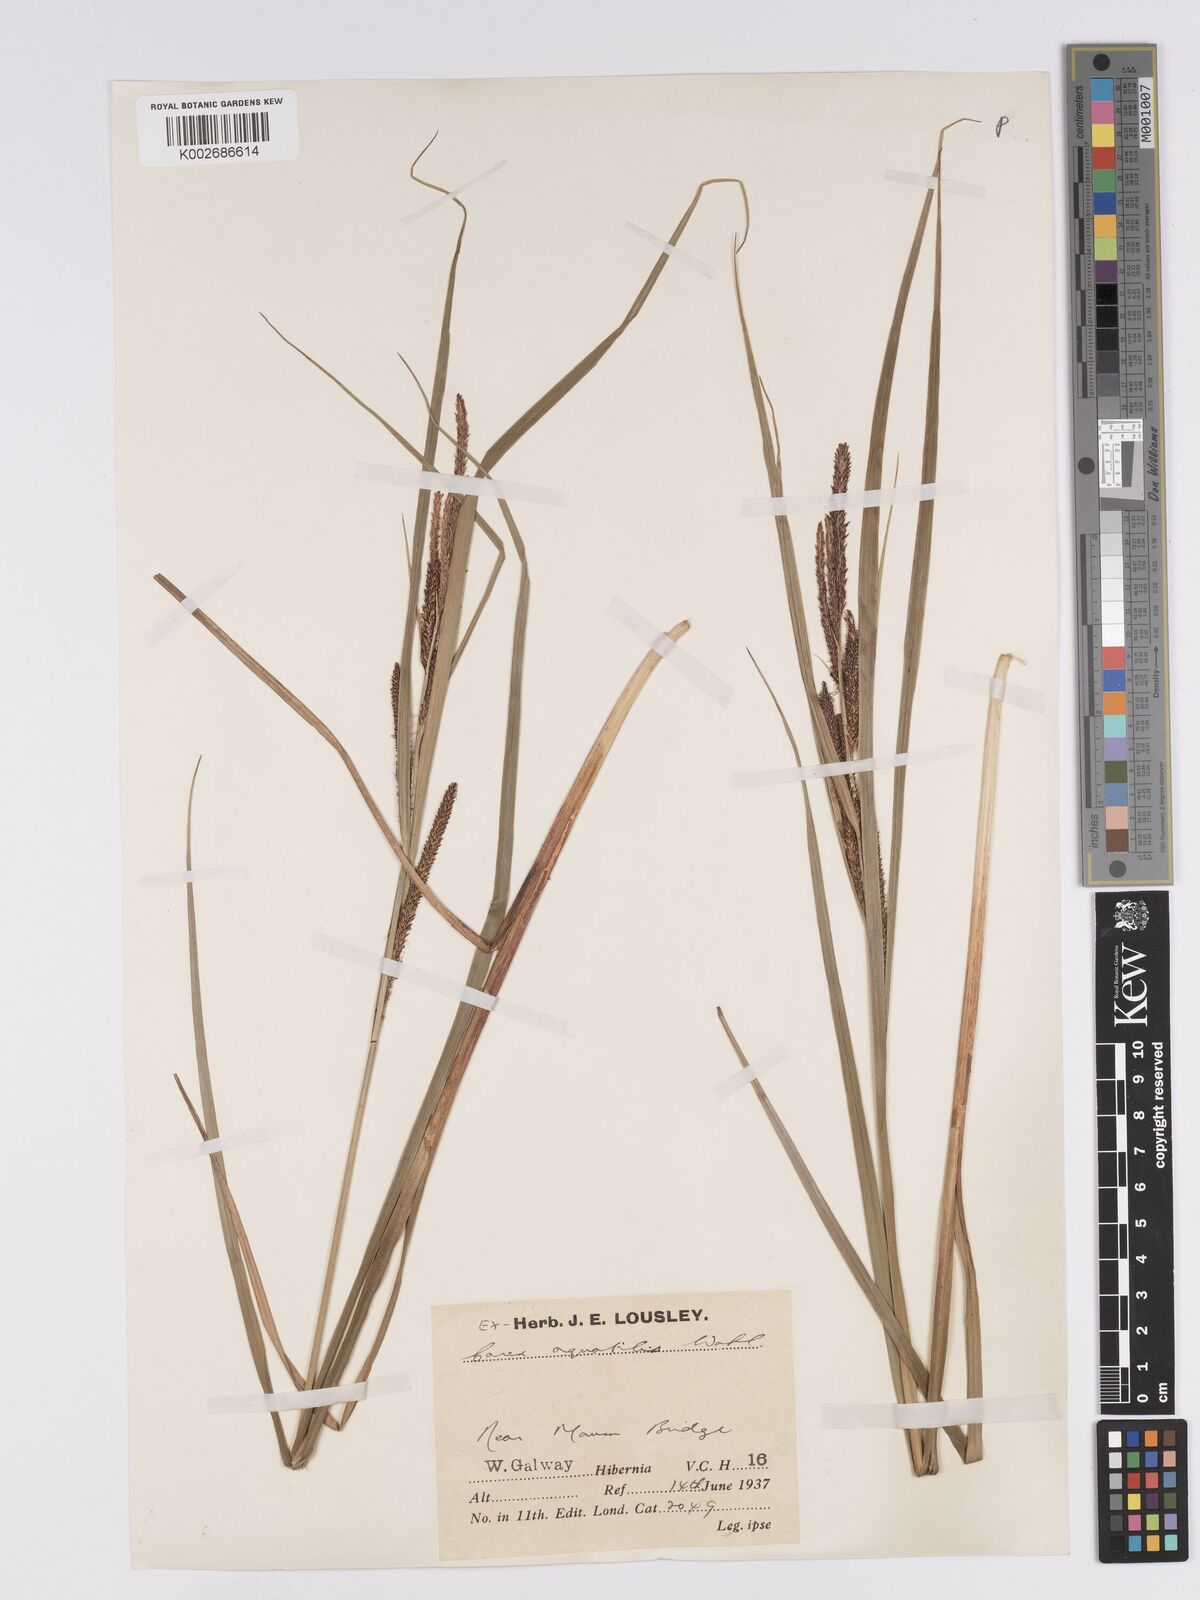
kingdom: Plantae
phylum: Tracheophyta
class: Liliopsida
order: Poales
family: Cyperaceae
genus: Carex
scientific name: Carex aquatilis
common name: Water sedge
